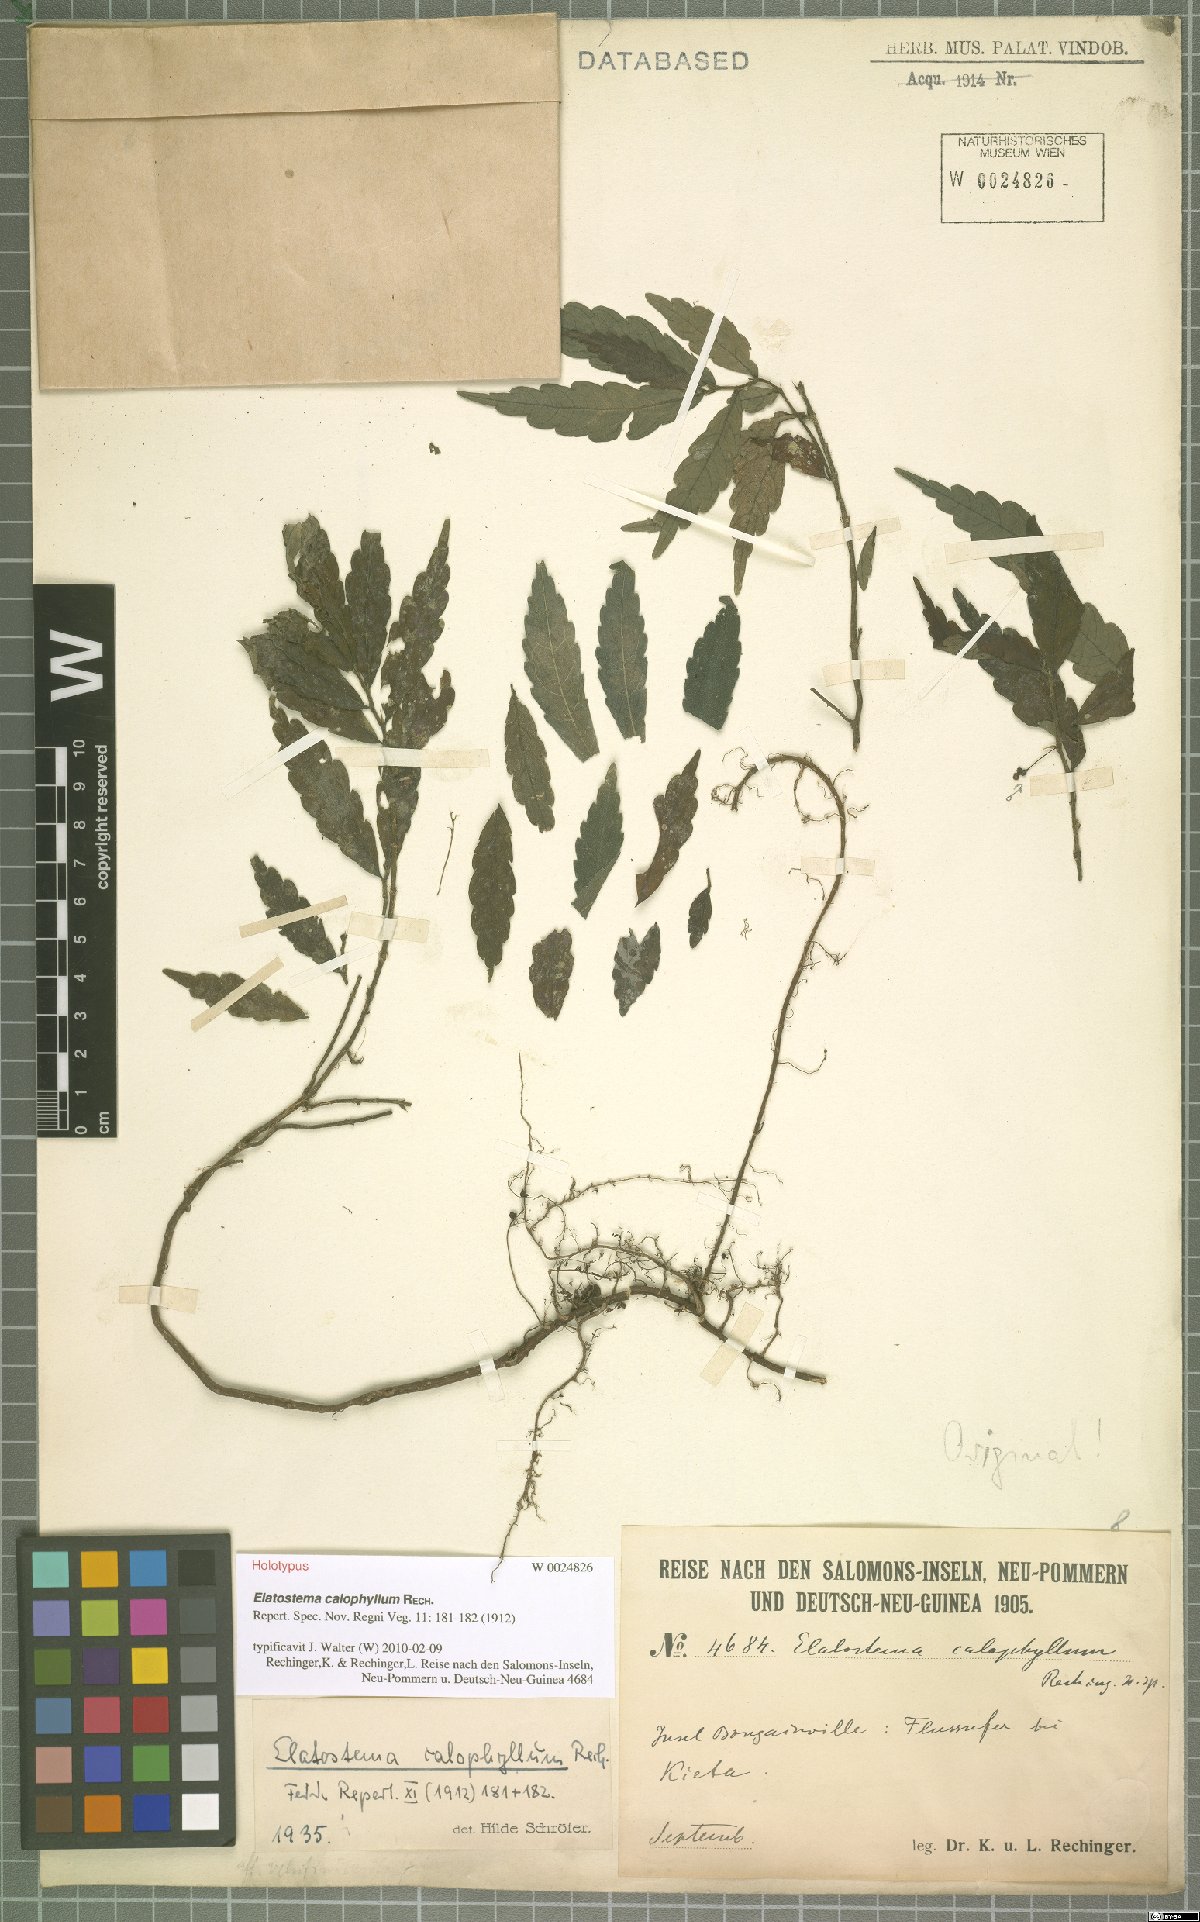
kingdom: Plantae
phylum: Tracheophyta
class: Magnoliopsida
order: Rosales
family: Urticaceae
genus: Elatostema
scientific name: Elatostema calophyllum
